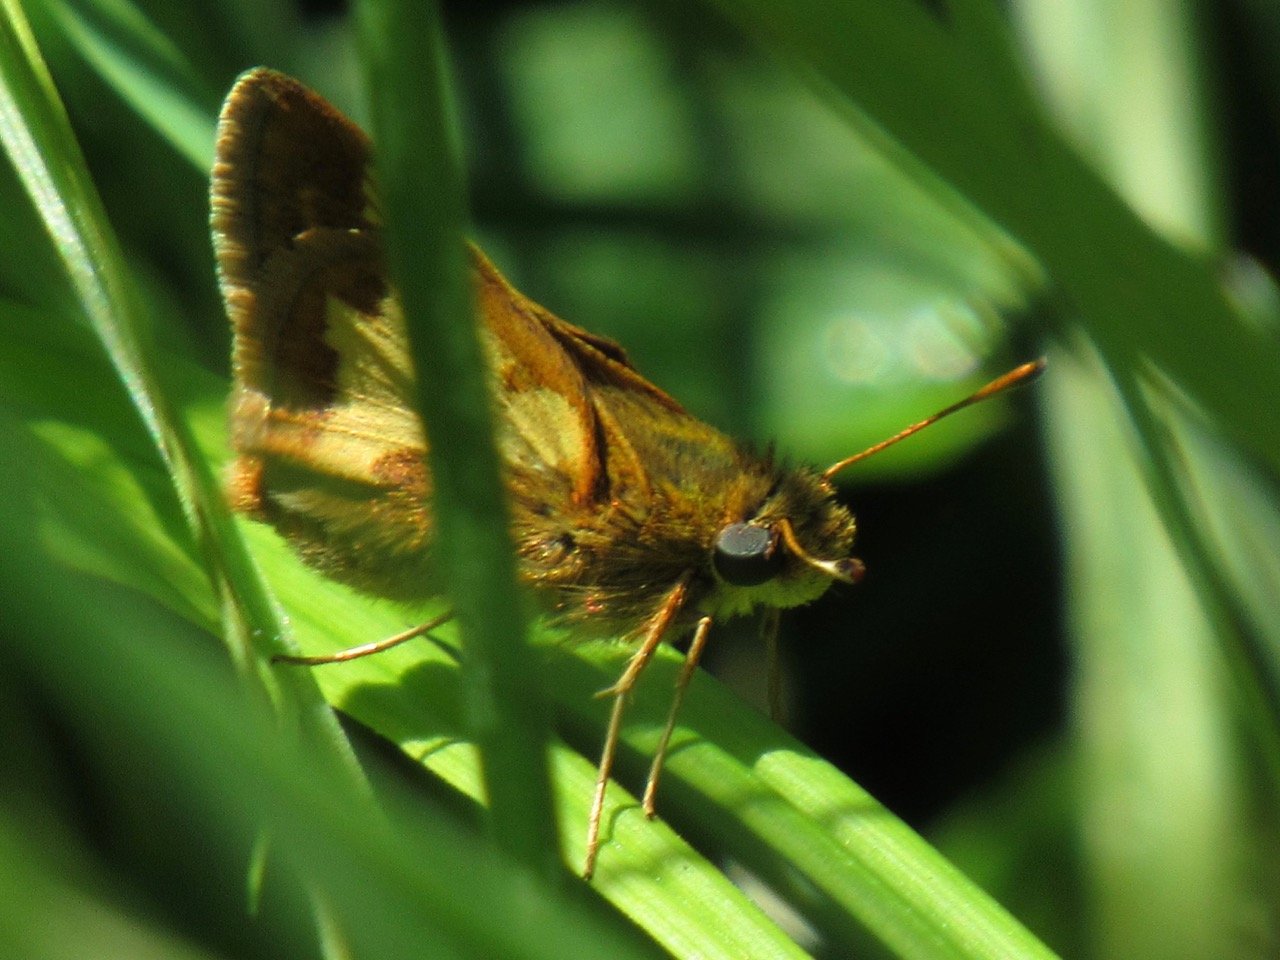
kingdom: Animalia
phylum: Arthropoda
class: Insecta
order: Lepidoptera
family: Hesperiidae
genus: Polites
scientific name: Polites coras
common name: Peck's Skipper
